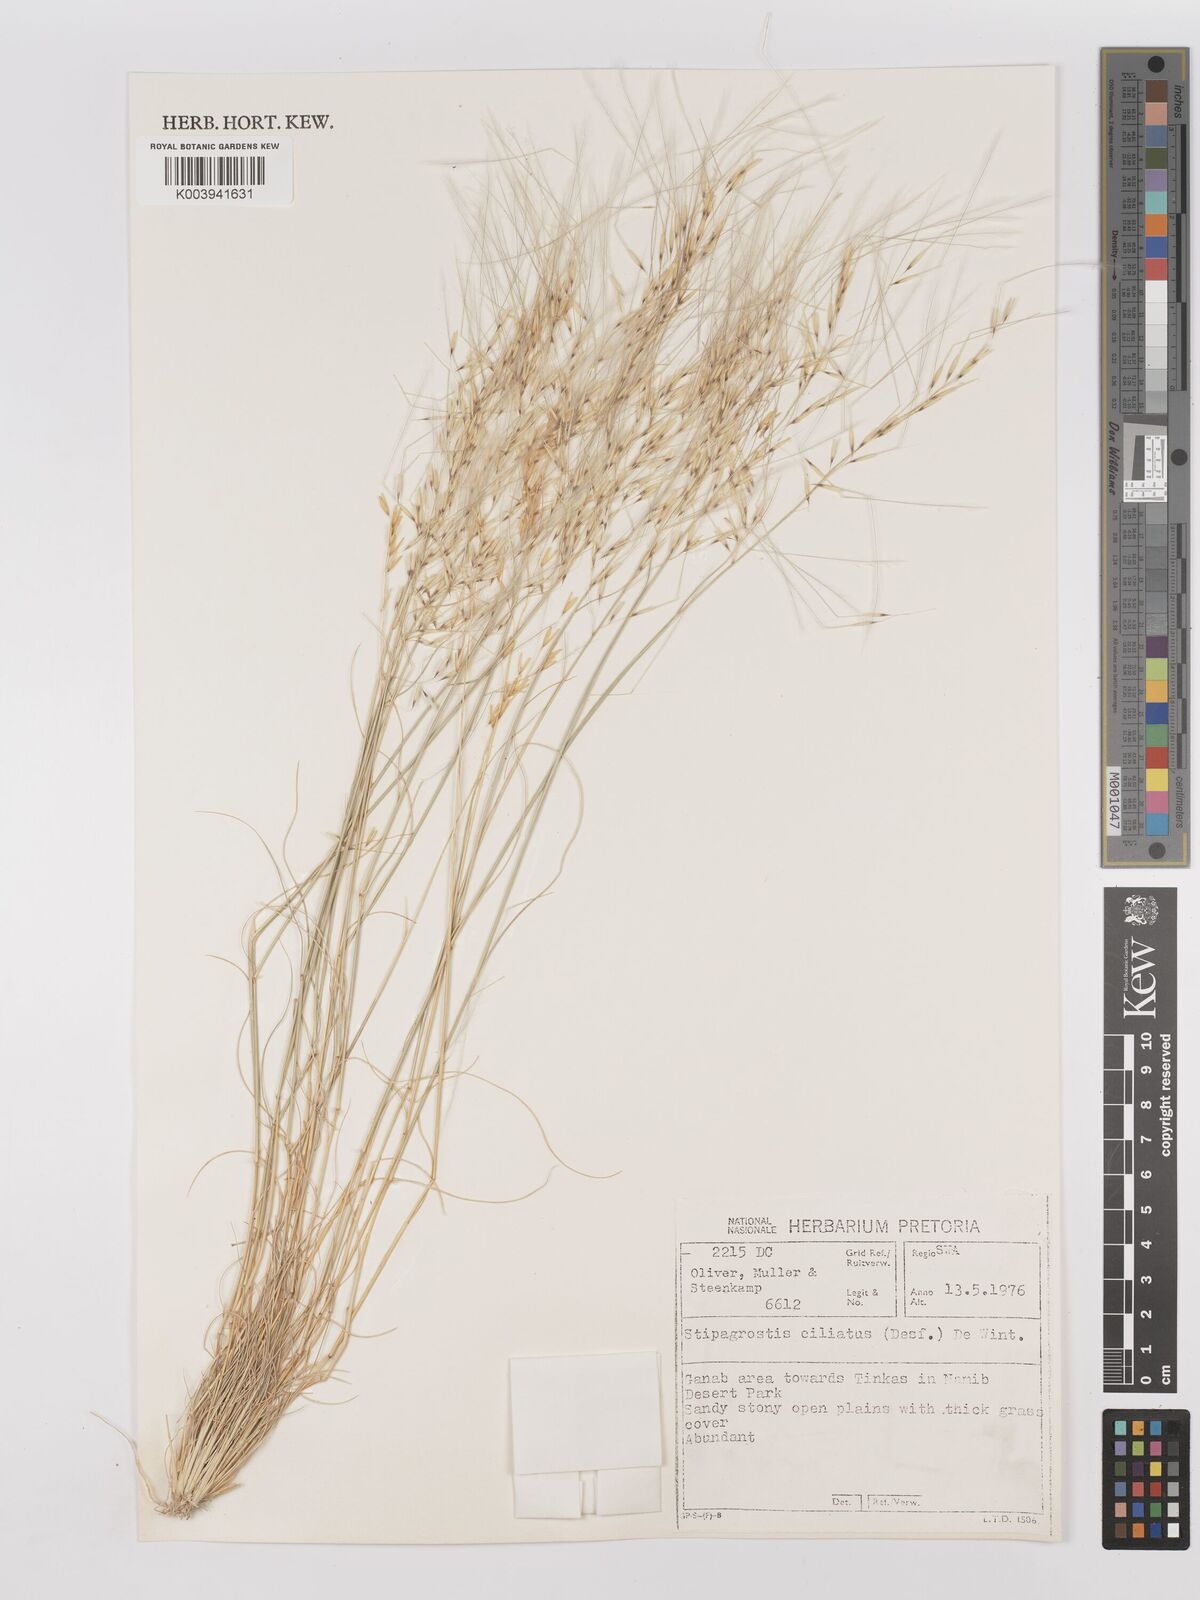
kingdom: Plantae
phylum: Tracheophyta
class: Liliopsida
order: Poales
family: Poaceae
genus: Stipagrostis
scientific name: Stipagrostis ciliata
